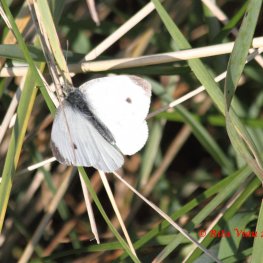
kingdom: Animalia
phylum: Arthropoda
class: Insecta
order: Lepidoptera
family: Pieridae
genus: Pieris
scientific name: Pieris rapae
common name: Cabbage White
